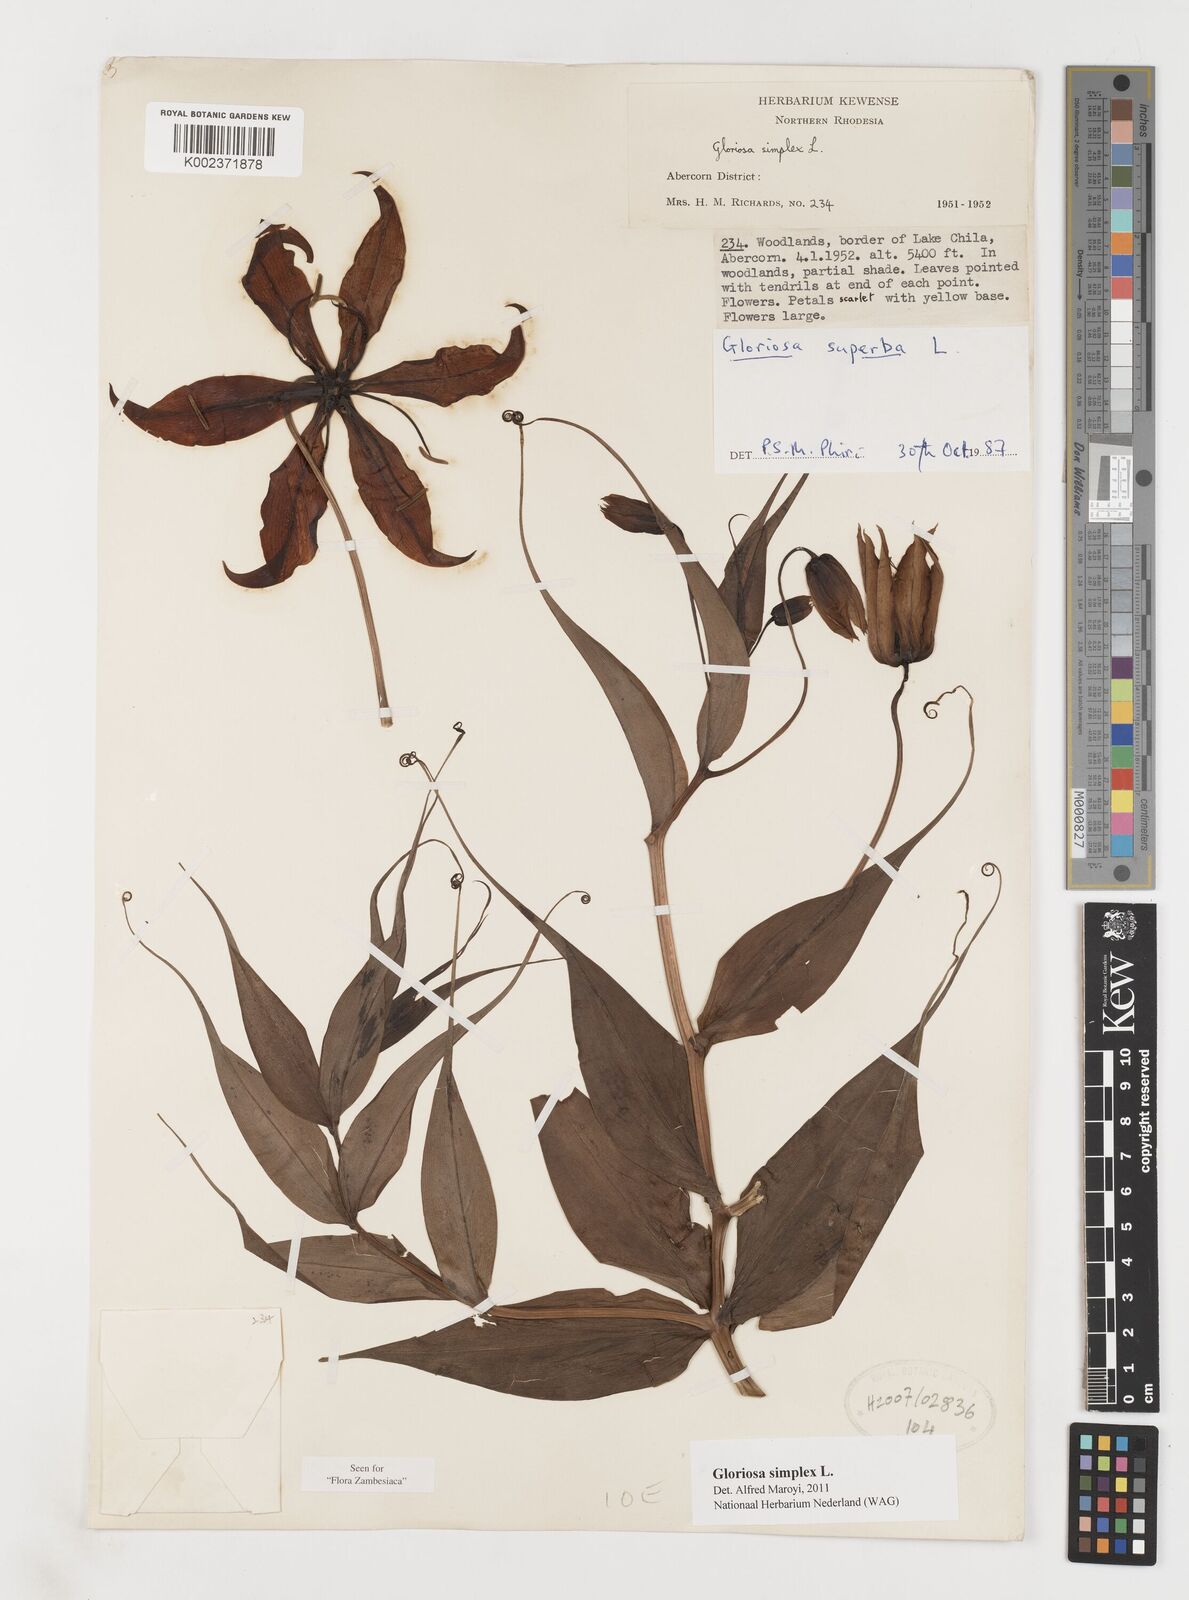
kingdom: Plantae
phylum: Tracheophyta
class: Liliopsida
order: Liliales
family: Colchicaceae
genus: Gloriosa
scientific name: Gloriosa simplex
